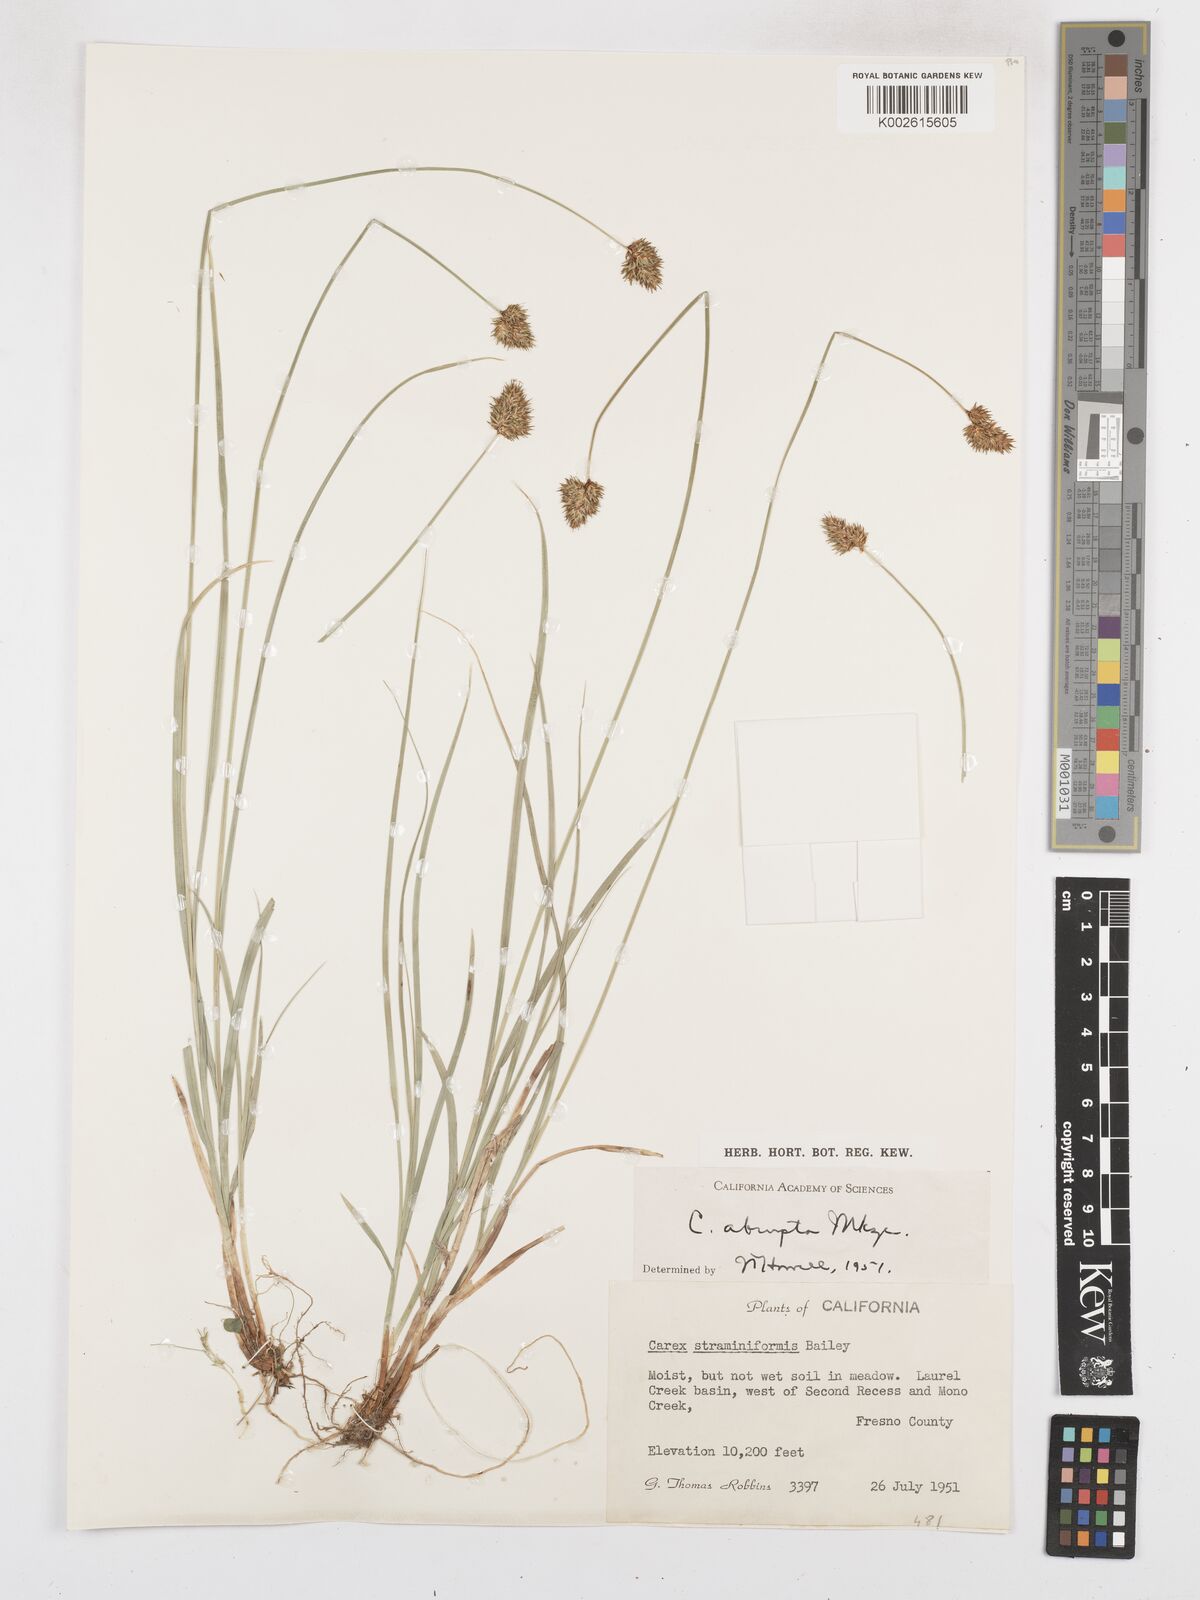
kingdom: Plantae
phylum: Tracheophyta
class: Liliopsida
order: Poales
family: Cyperaceae
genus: Carex
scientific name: Carex abrupta
